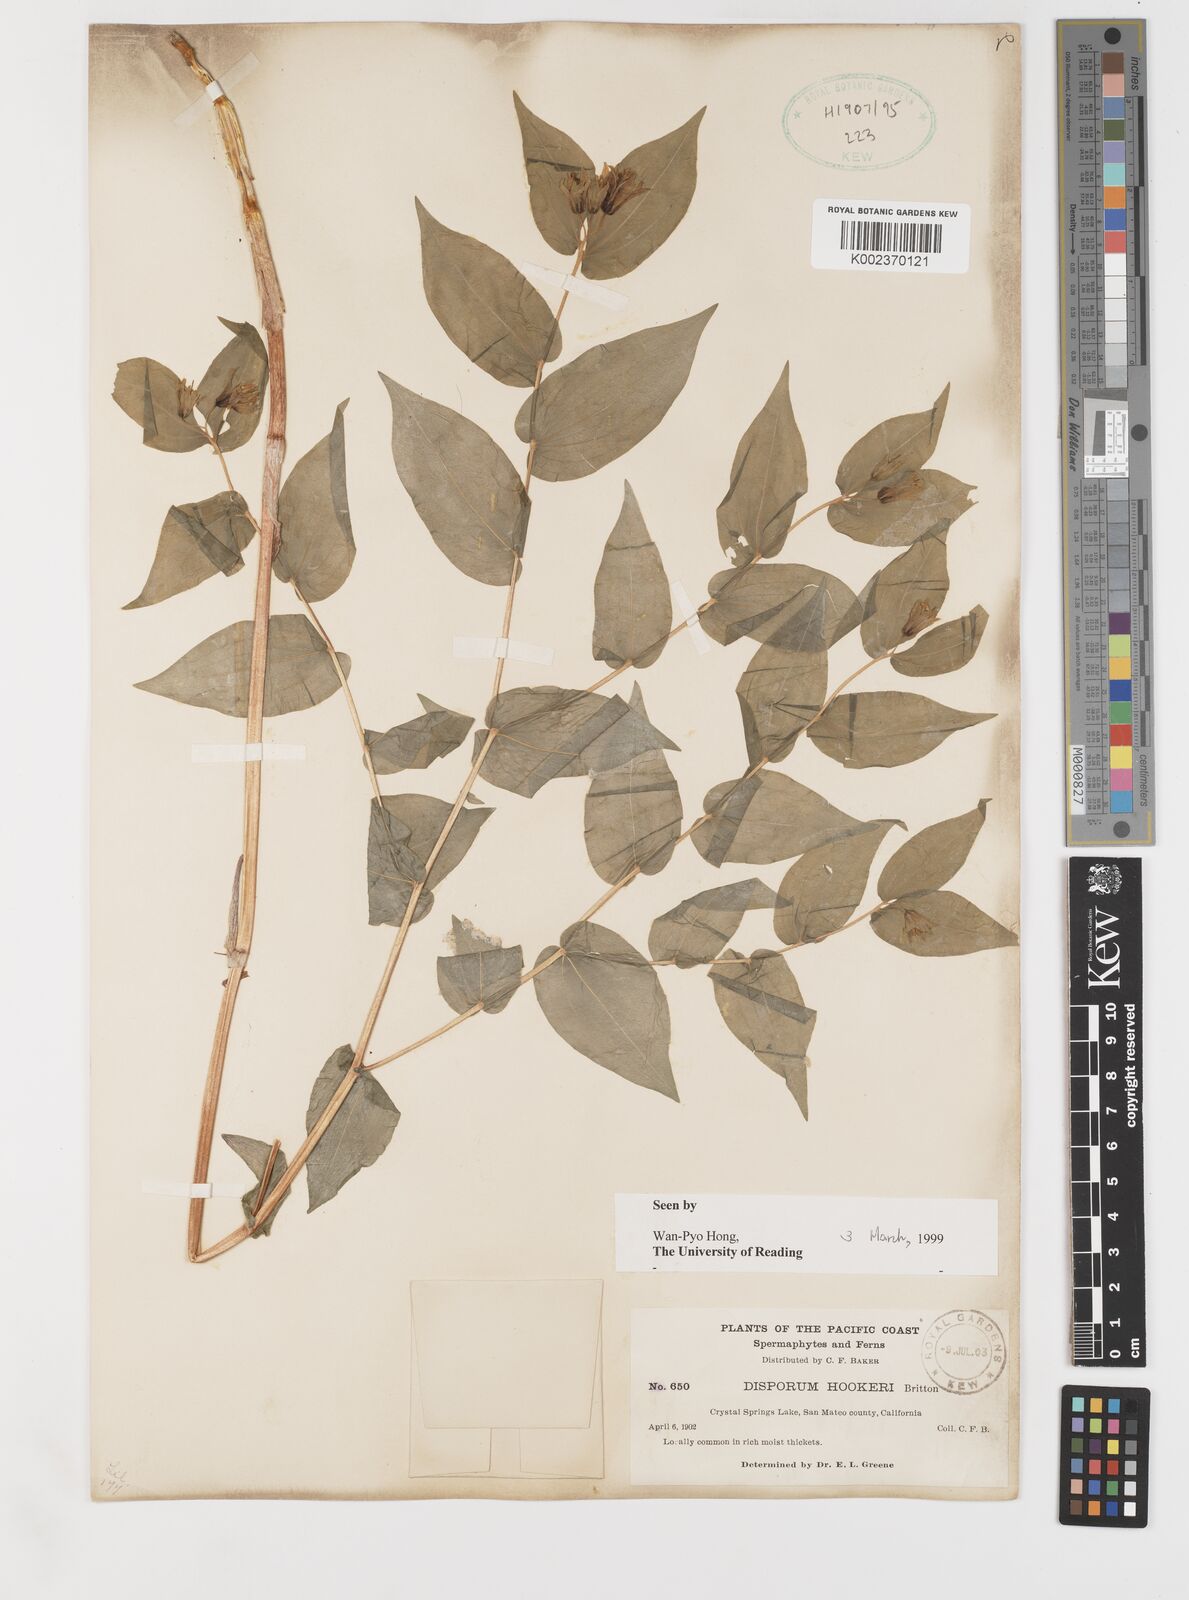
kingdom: Plantae
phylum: Tracheophyta
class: Liliopsida
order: Liliales
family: Liliaceae
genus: Prosartes
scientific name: Prosartes hookeri
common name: Fairy-bells
